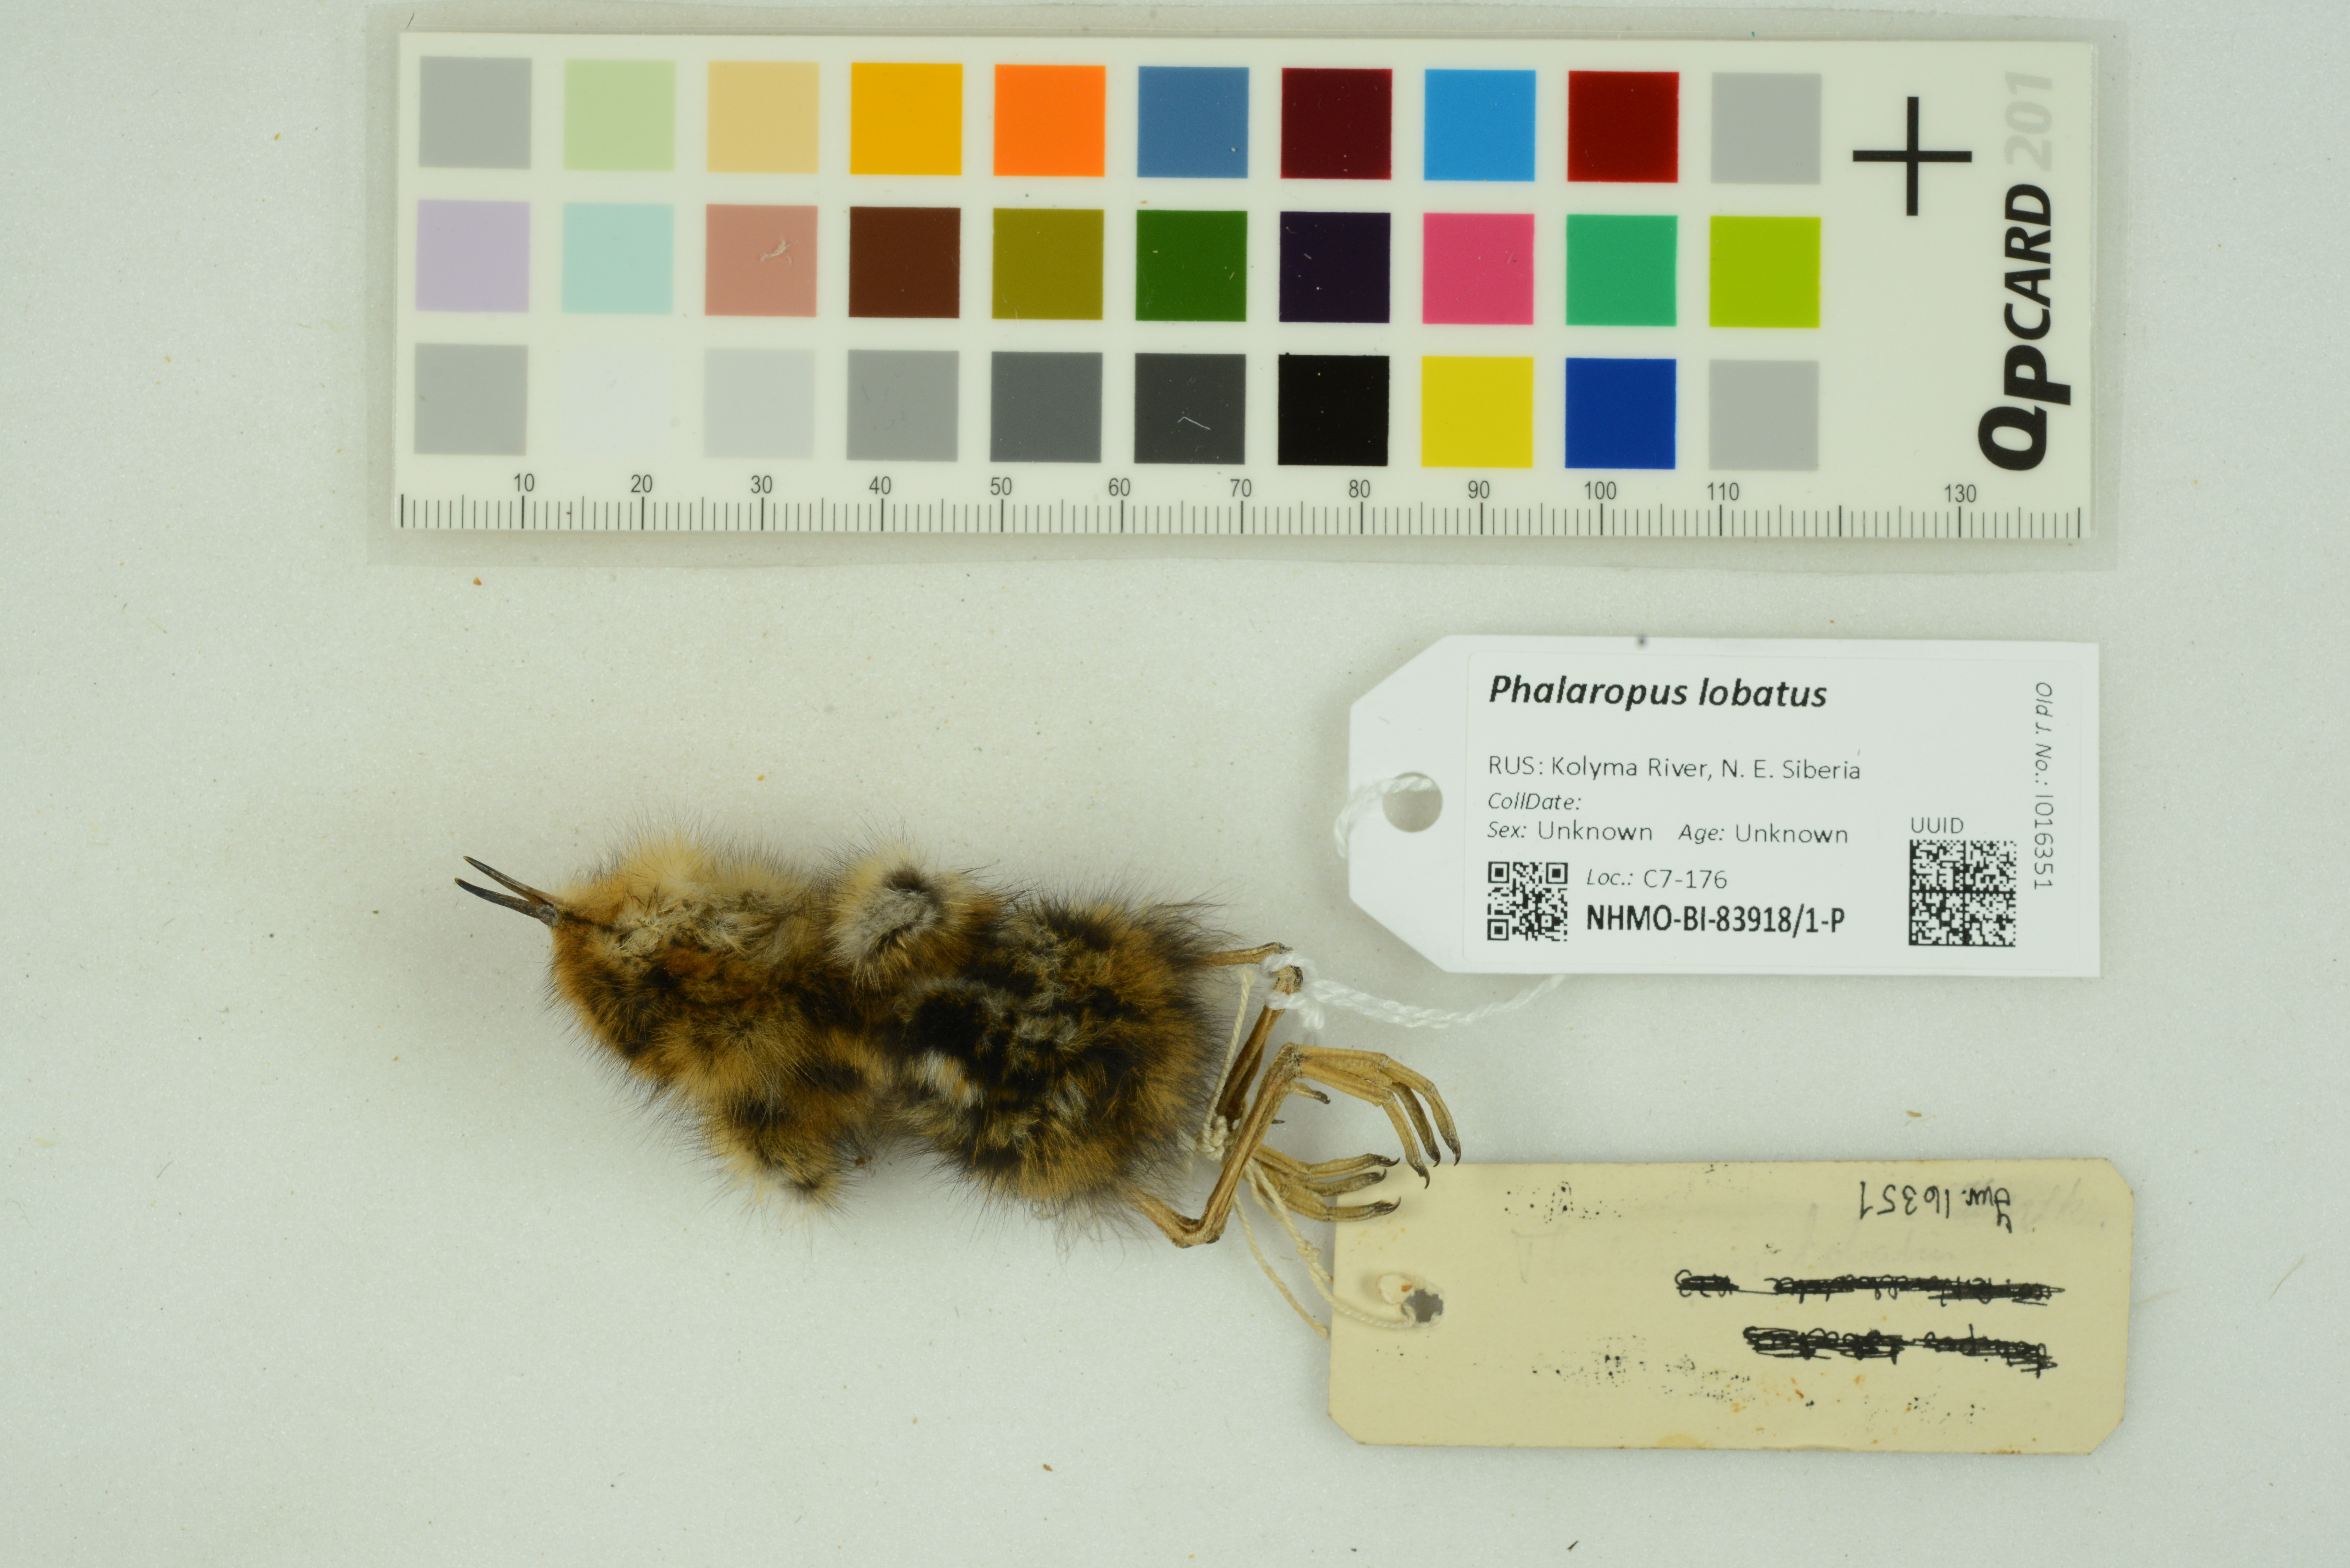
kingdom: Animalia
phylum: Chordata
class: Aves
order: Charadriiformes
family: Scolopacidae
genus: Phalaropus
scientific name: Phalaropus lobatus
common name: Red-necked phalarope
